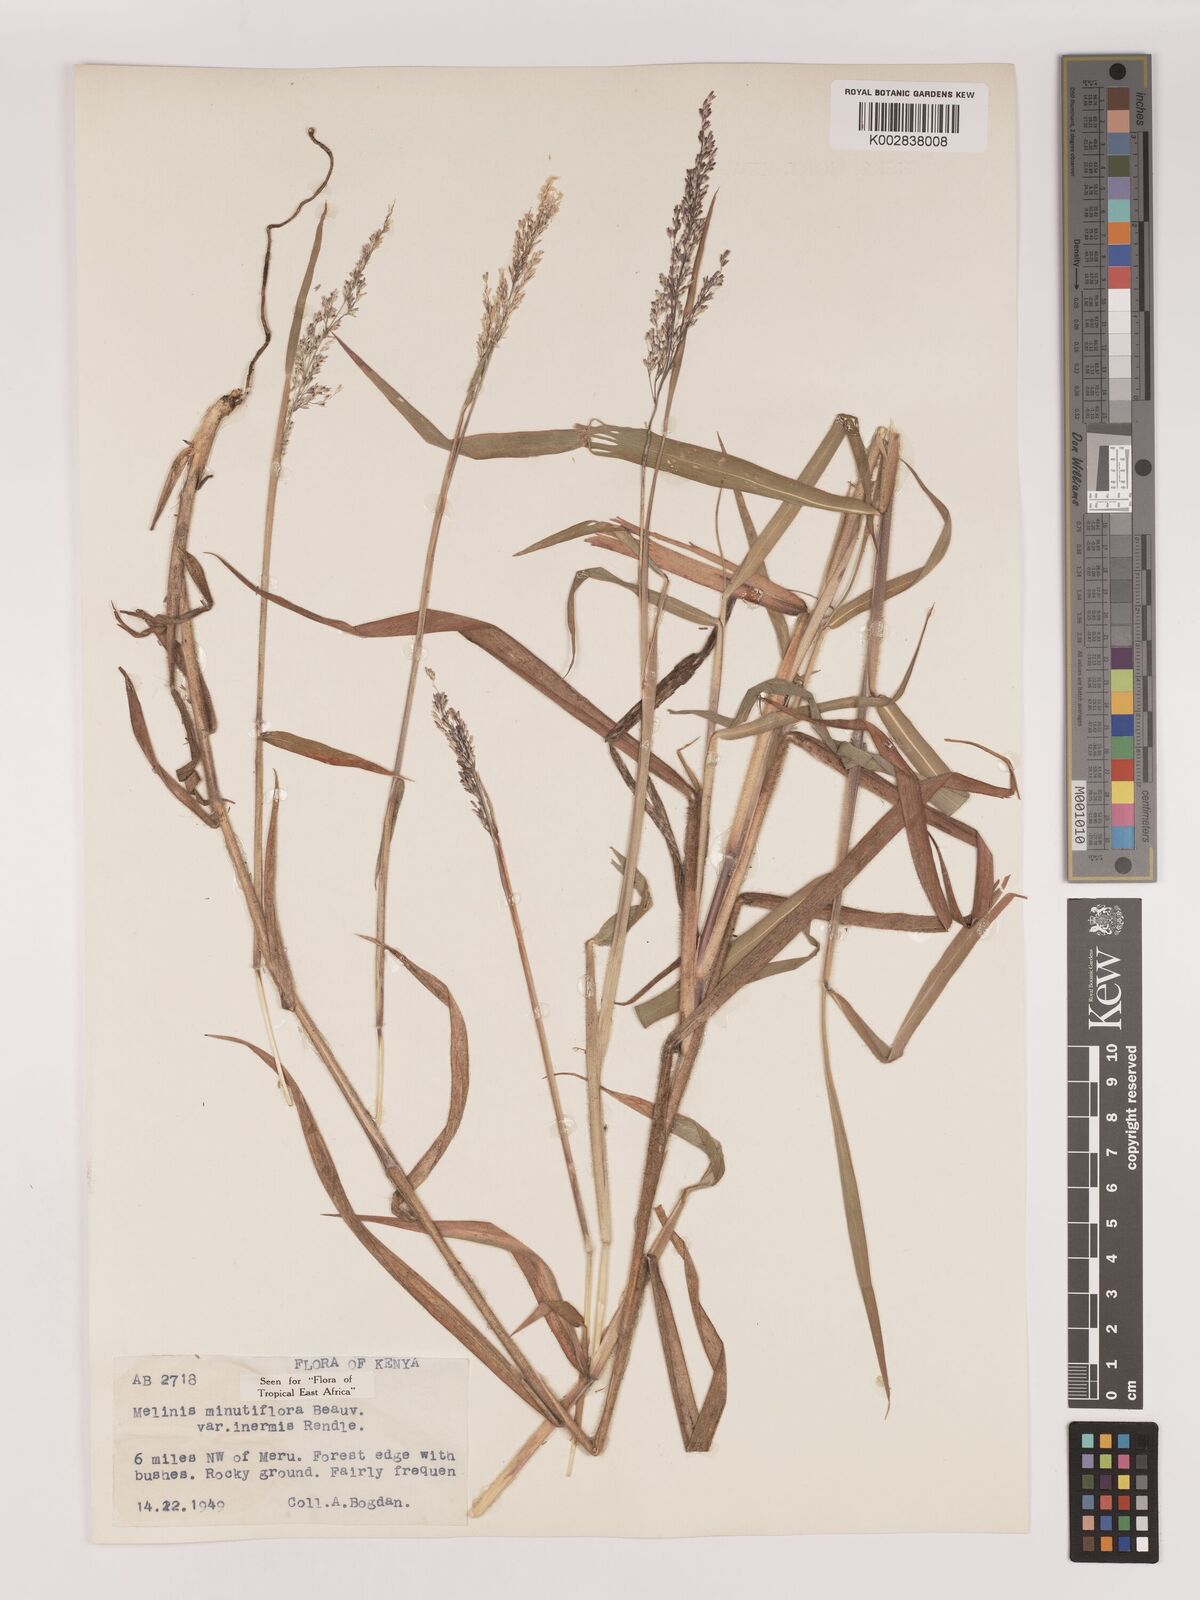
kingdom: Plantae
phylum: Tracheophyta
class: Liliopsida
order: Poales
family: Poaceae
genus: Melinis
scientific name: Melinis minutiflora
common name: Molassesgrass
